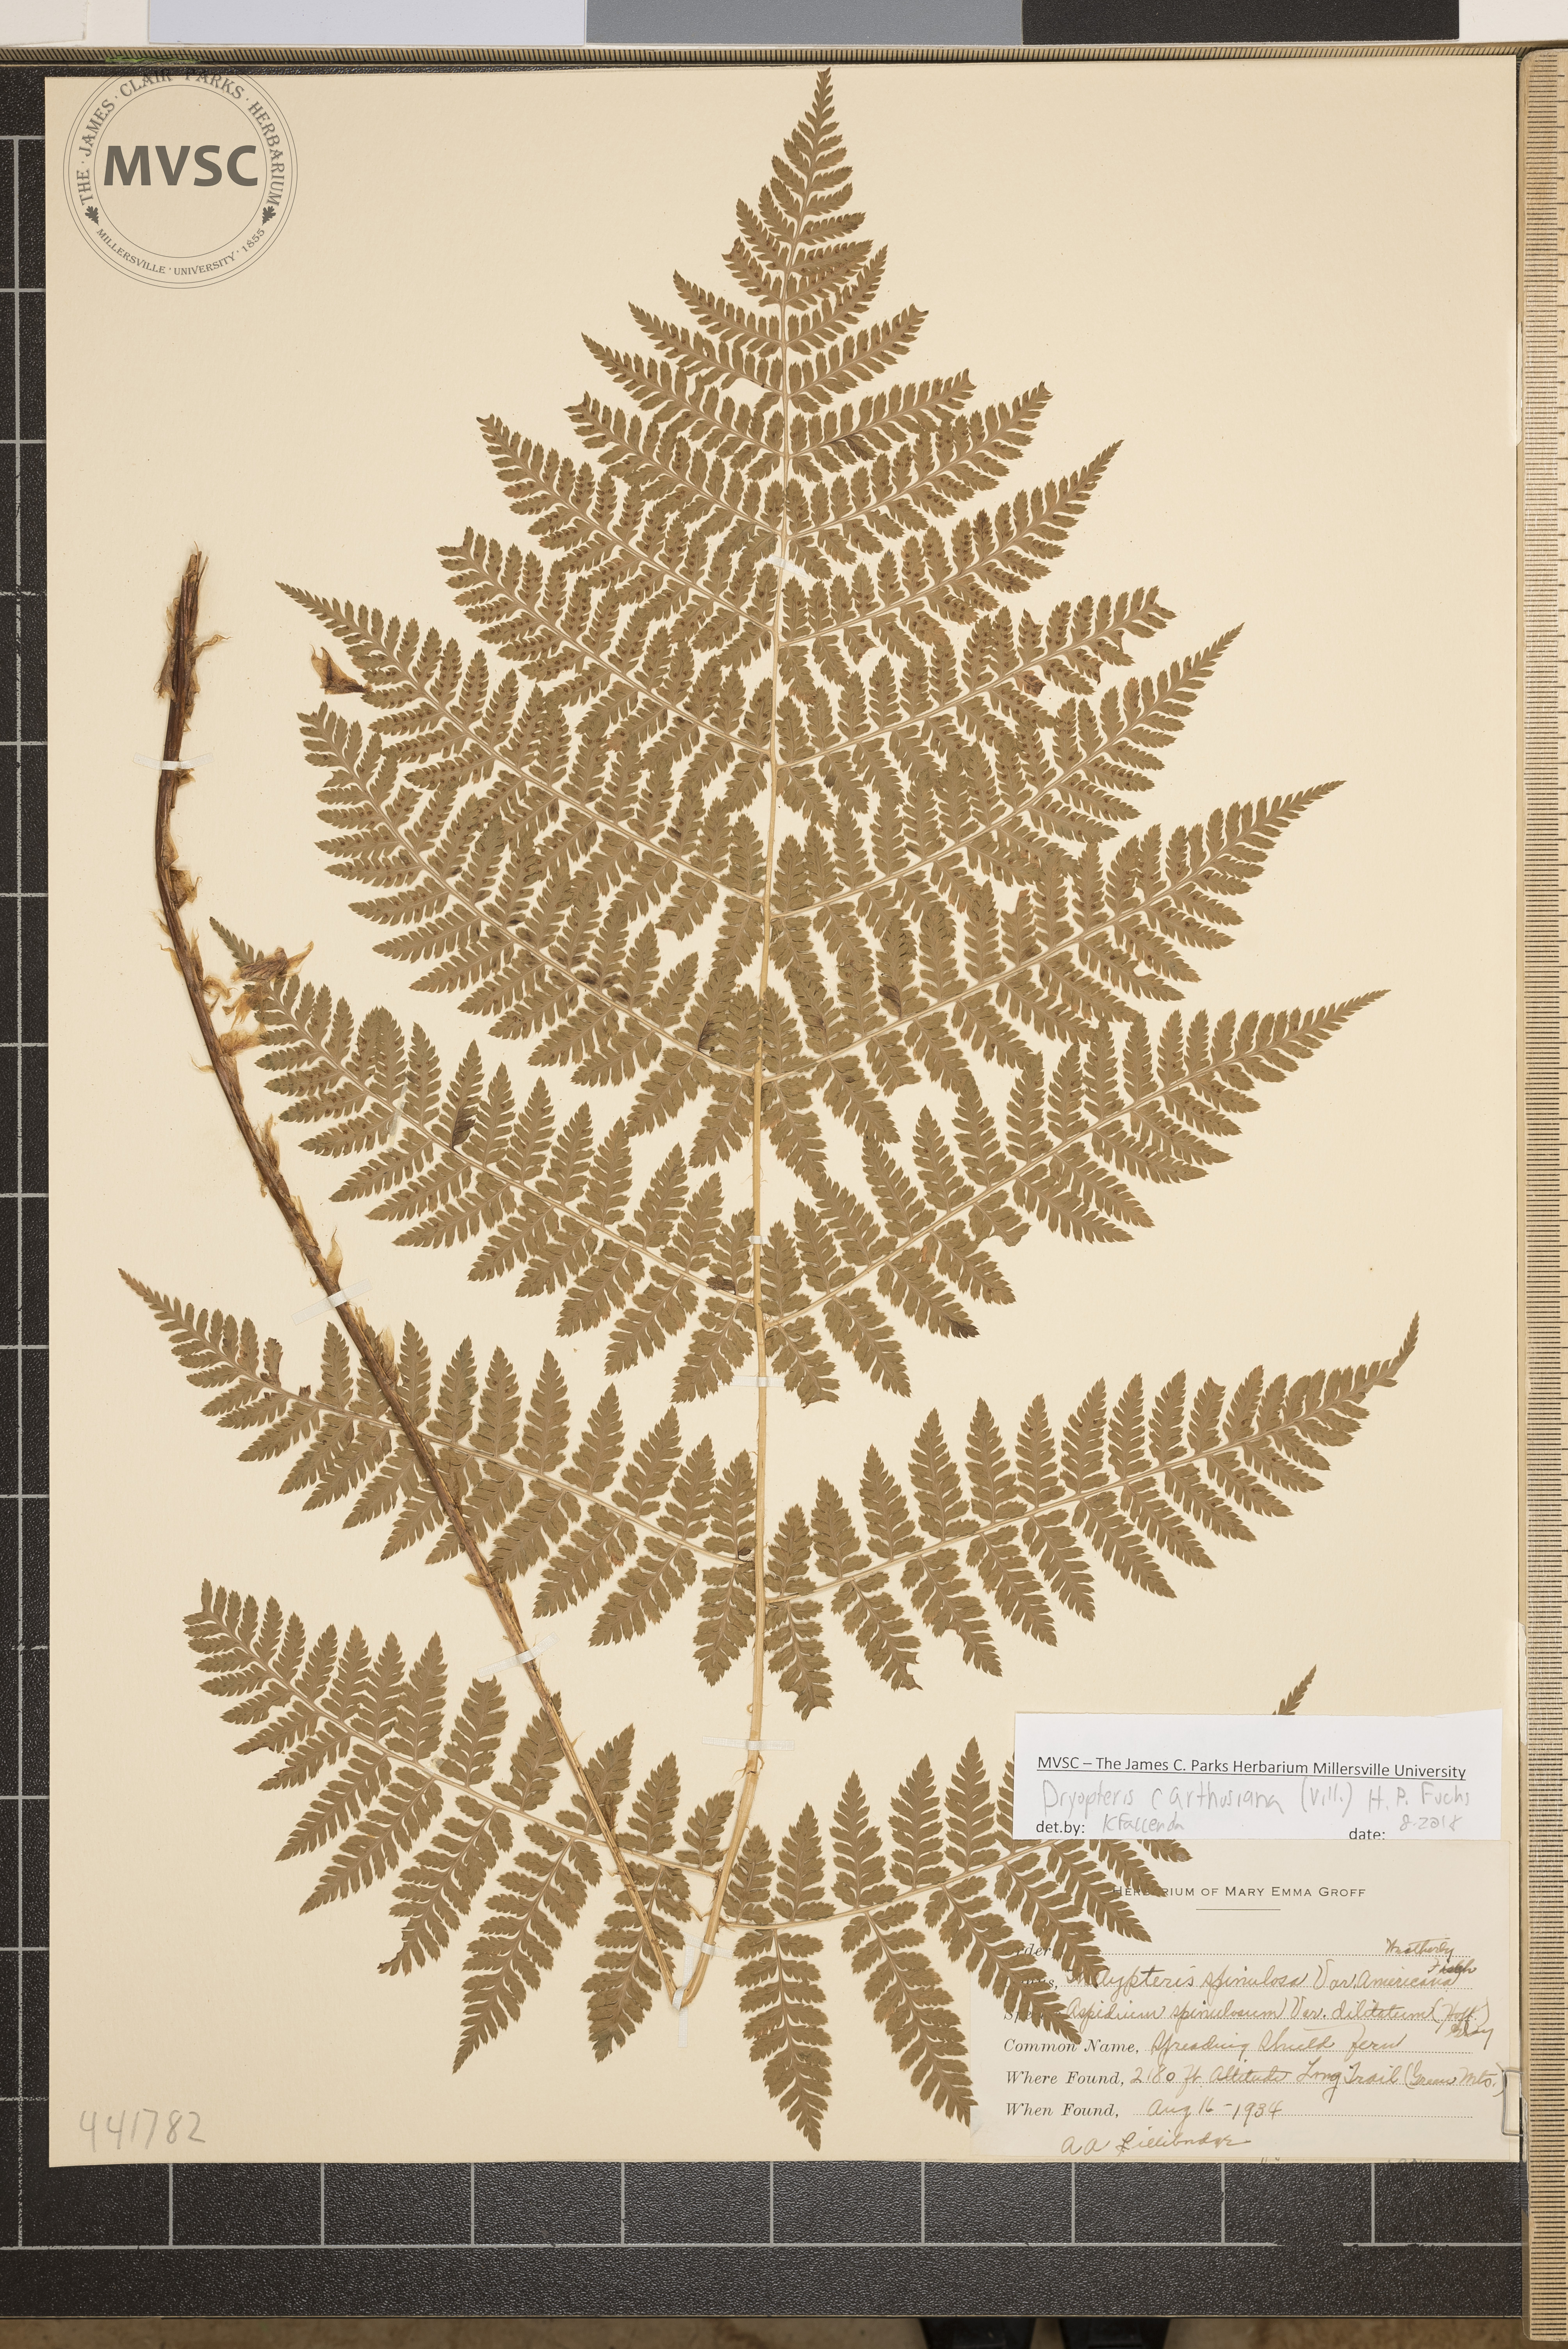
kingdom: Plantae
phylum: Tracheophyta
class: Polypodiopsida
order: Polypodiales
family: Dryopteridaceae
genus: Dryopteris
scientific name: Dryopteris carthusiana
